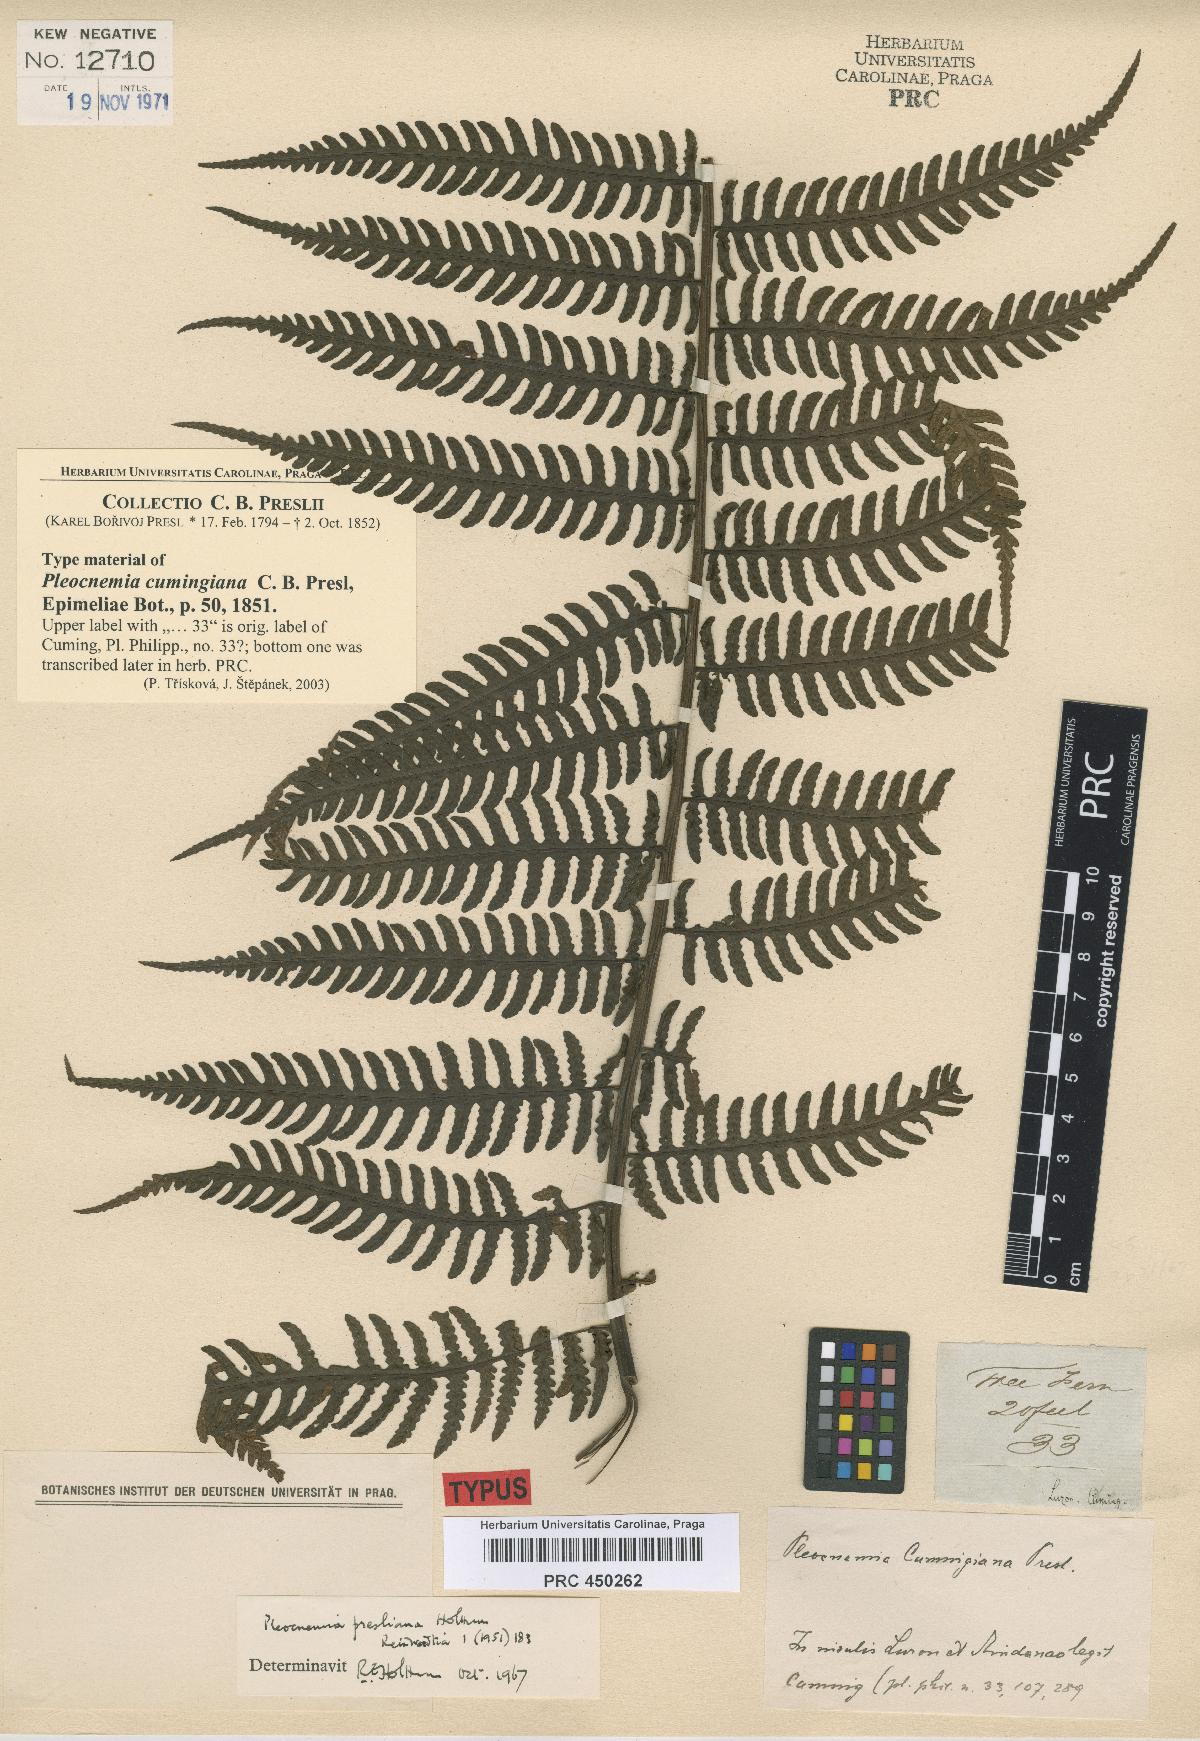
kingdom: Plantae
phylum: Tracheophyta
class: Polypodiopsida
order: Polypodiales
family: Dryopteridaceae
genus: Pleocnemia
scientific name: Pleocnemia cumingiana
